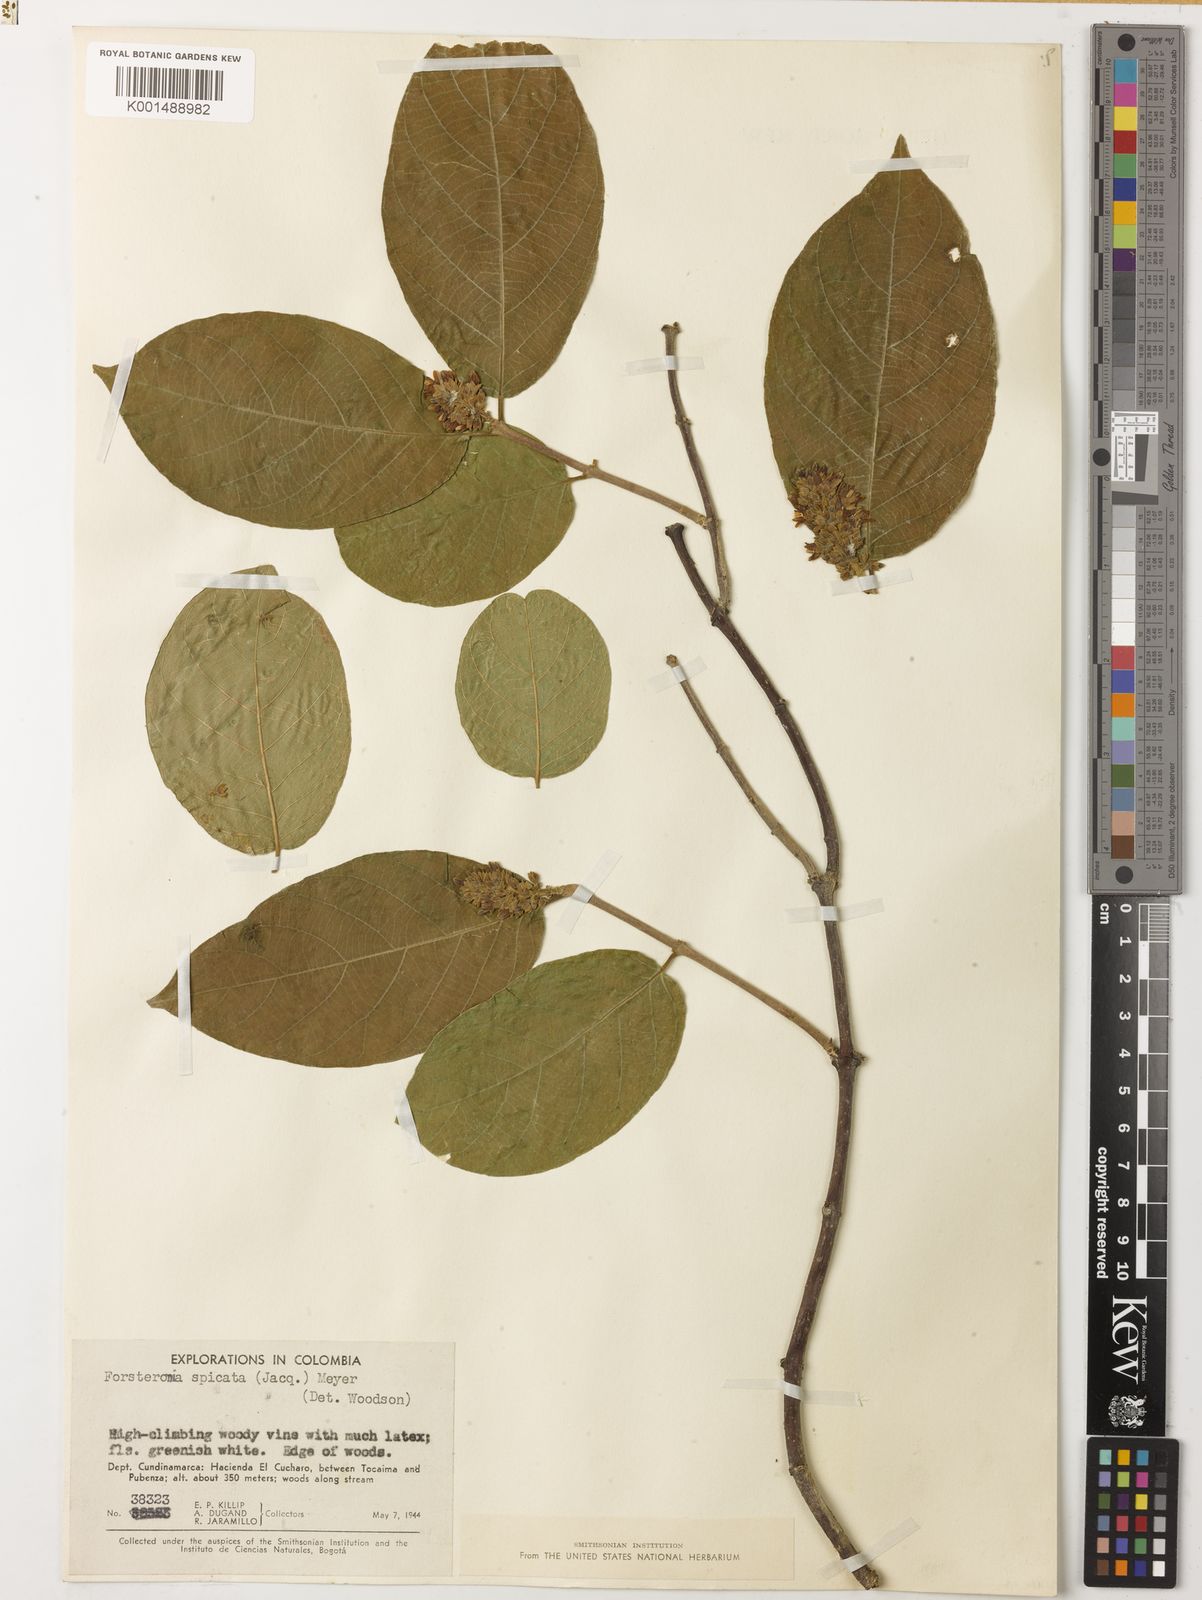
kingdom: Plantae
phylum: Tracheophyta
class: Magnoliopsida
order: Gentianales
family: Apocynaceae
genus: Forsteronia
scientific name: Forsteronia spicata
